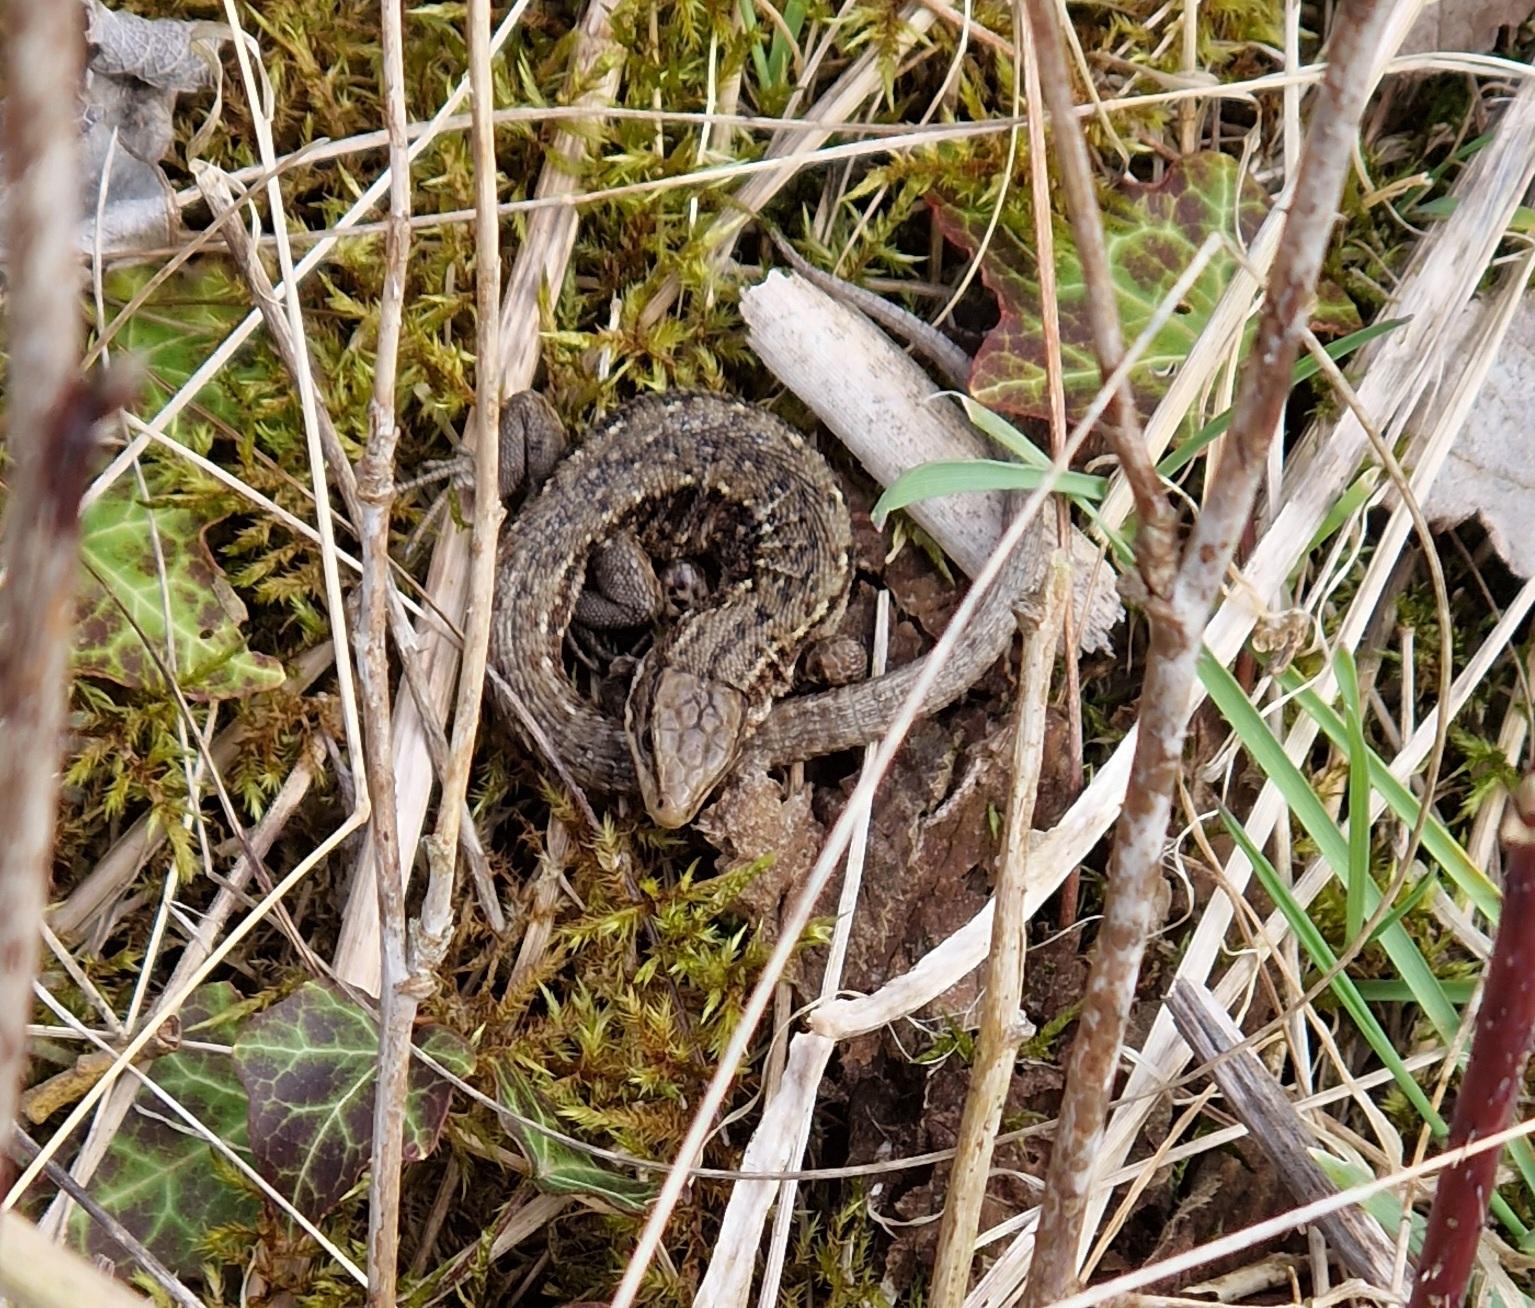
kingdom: Animalia
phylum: Chordata
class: Squamata
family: Lacertidae
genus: Zootoca
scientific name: Zootoca vivipara
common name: Skovfirben
